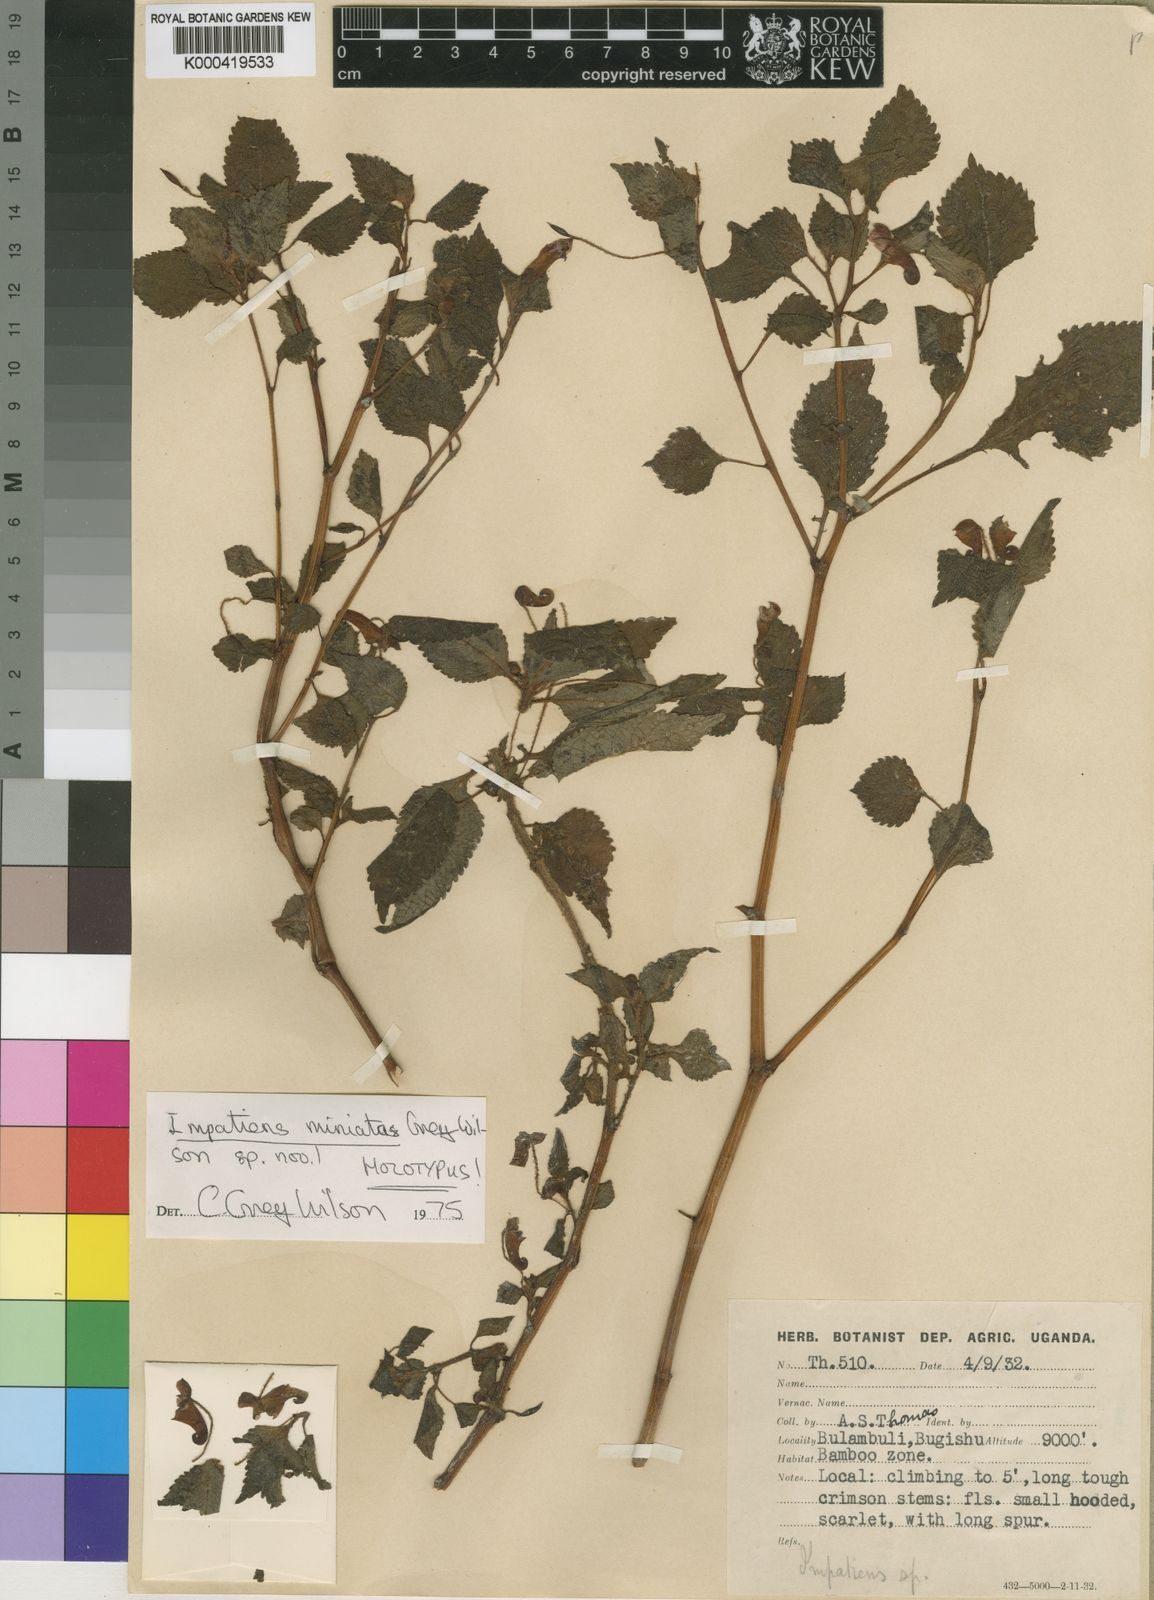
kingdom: Plantae
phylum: Tracheophyta
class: Magnoliopsida
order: Ericales
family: Balsaminaceae
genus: Impatiens
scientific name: Impatiens miniata
